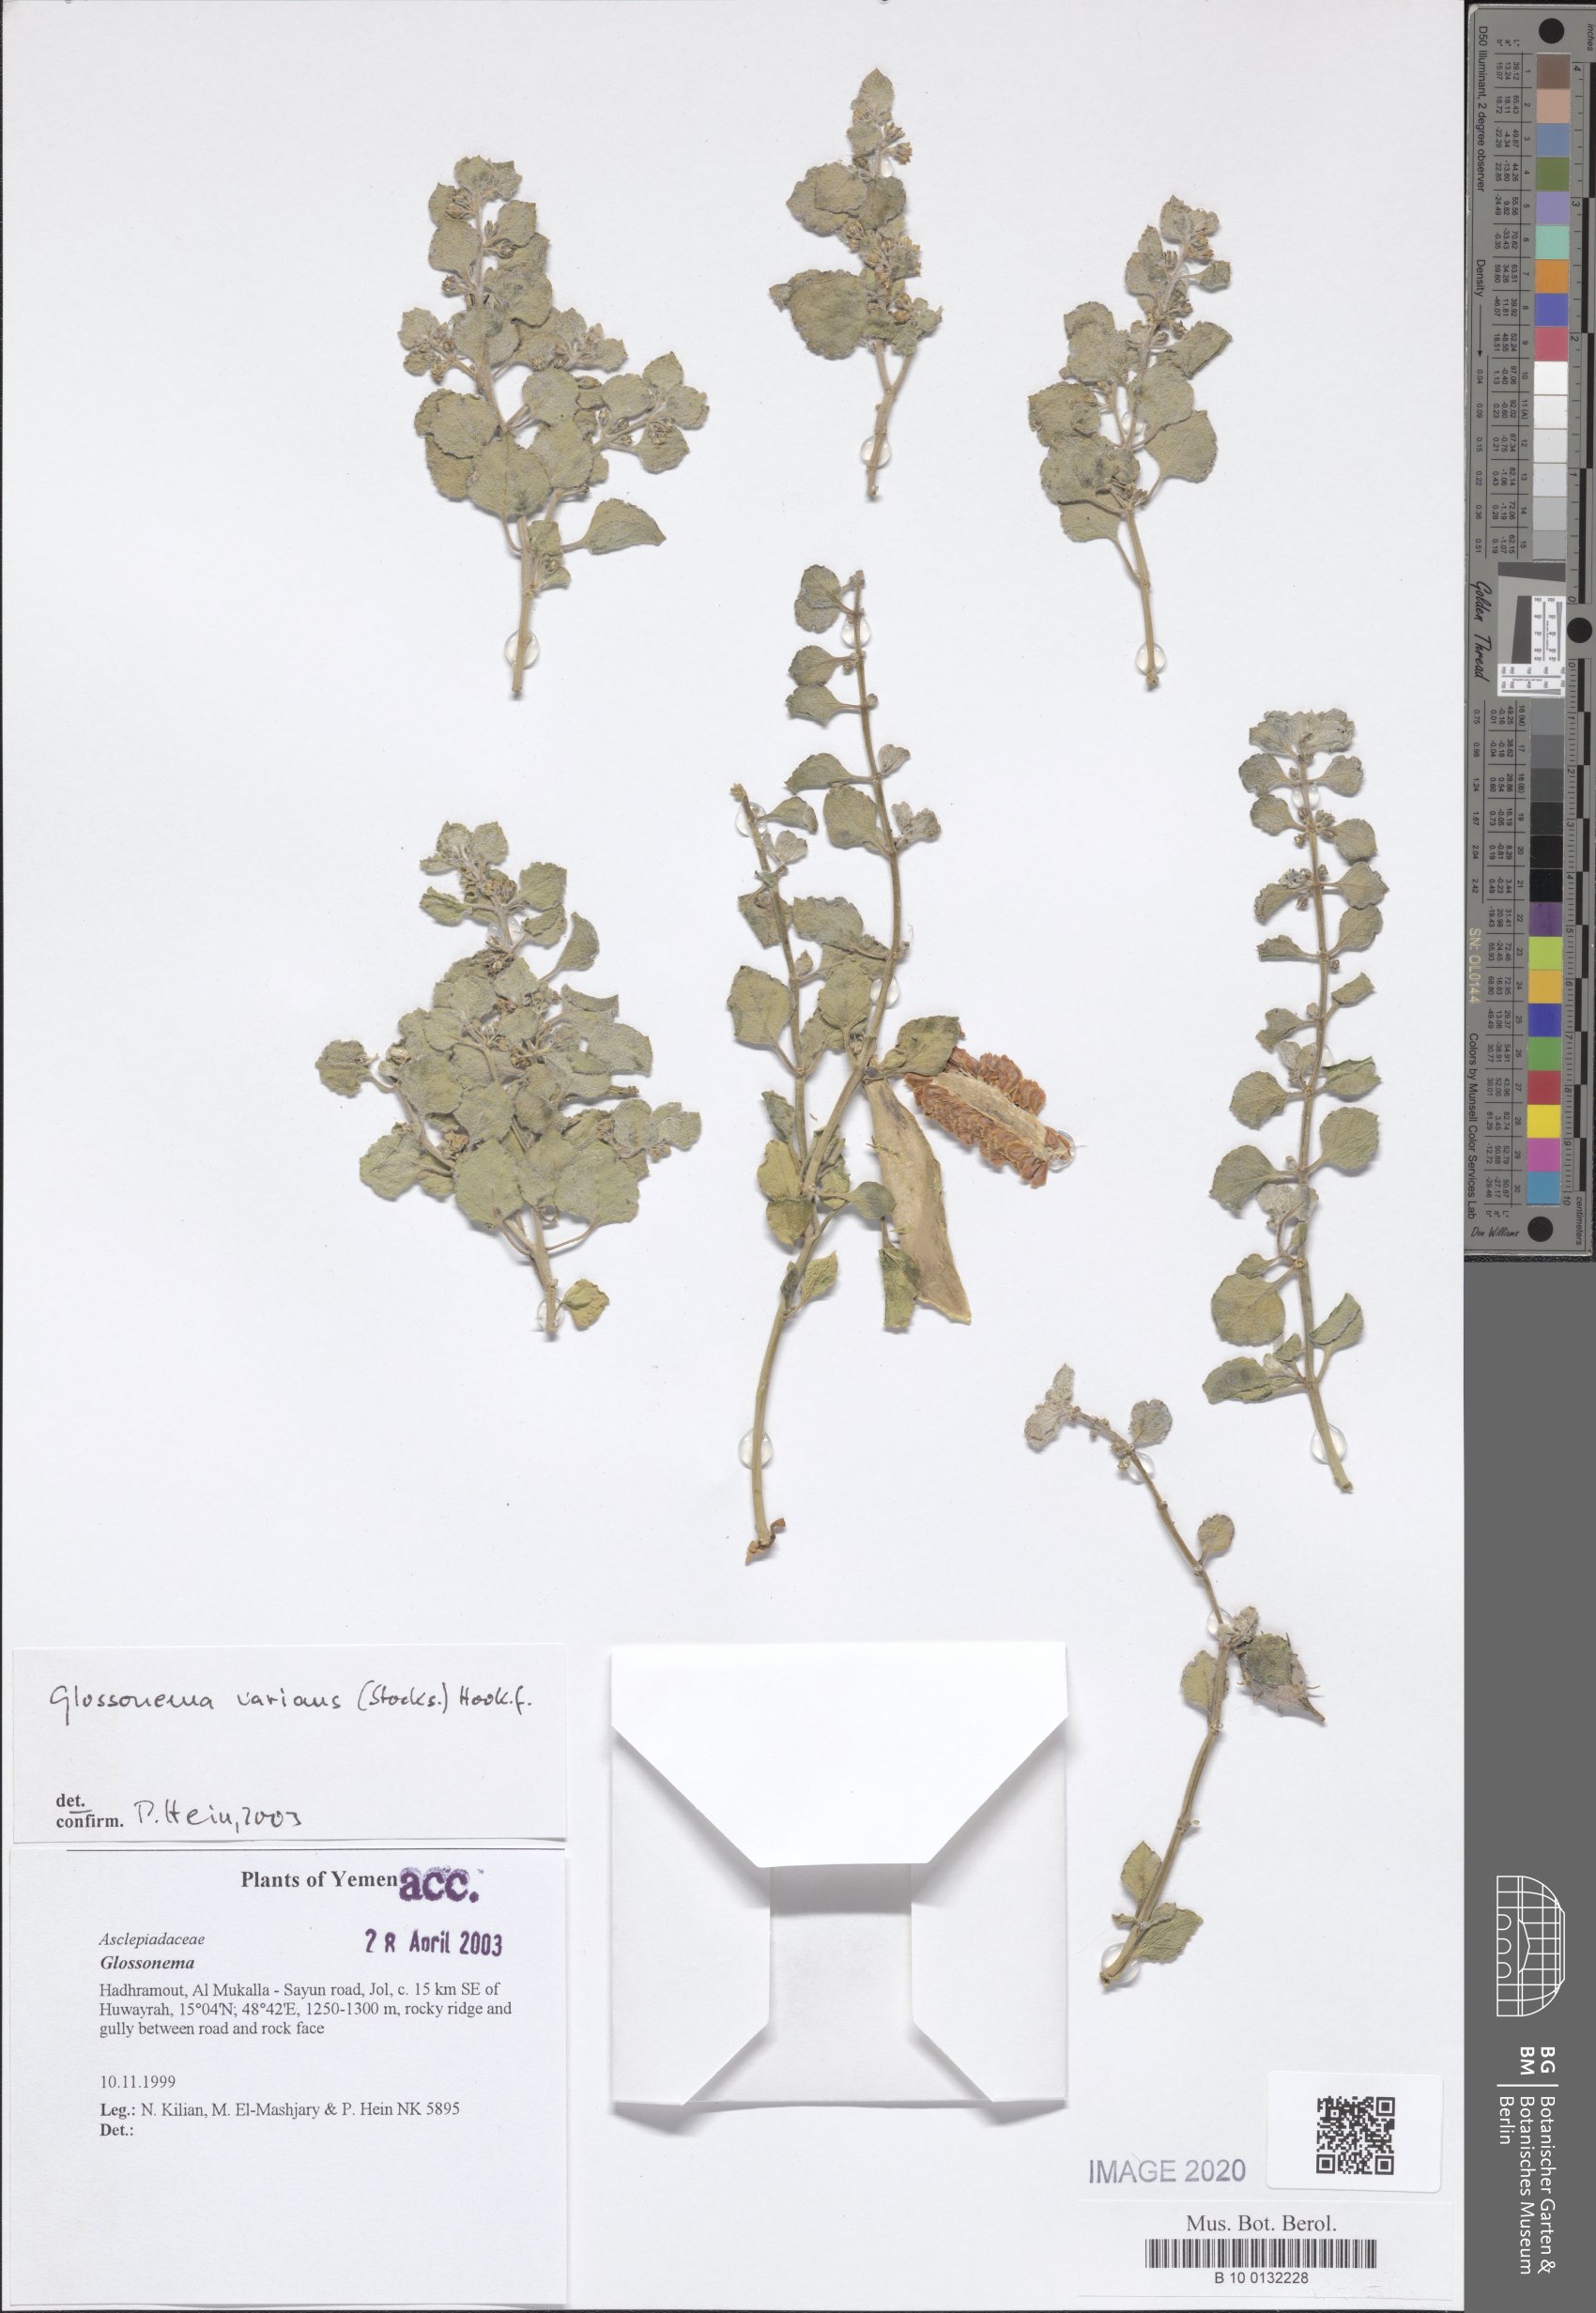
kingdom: Plantae
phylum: Tracheophyta
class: Magnoliopsida
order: Gentianales
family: Apocynaceae
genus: Cynanchum
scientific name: Cynanchum varians
